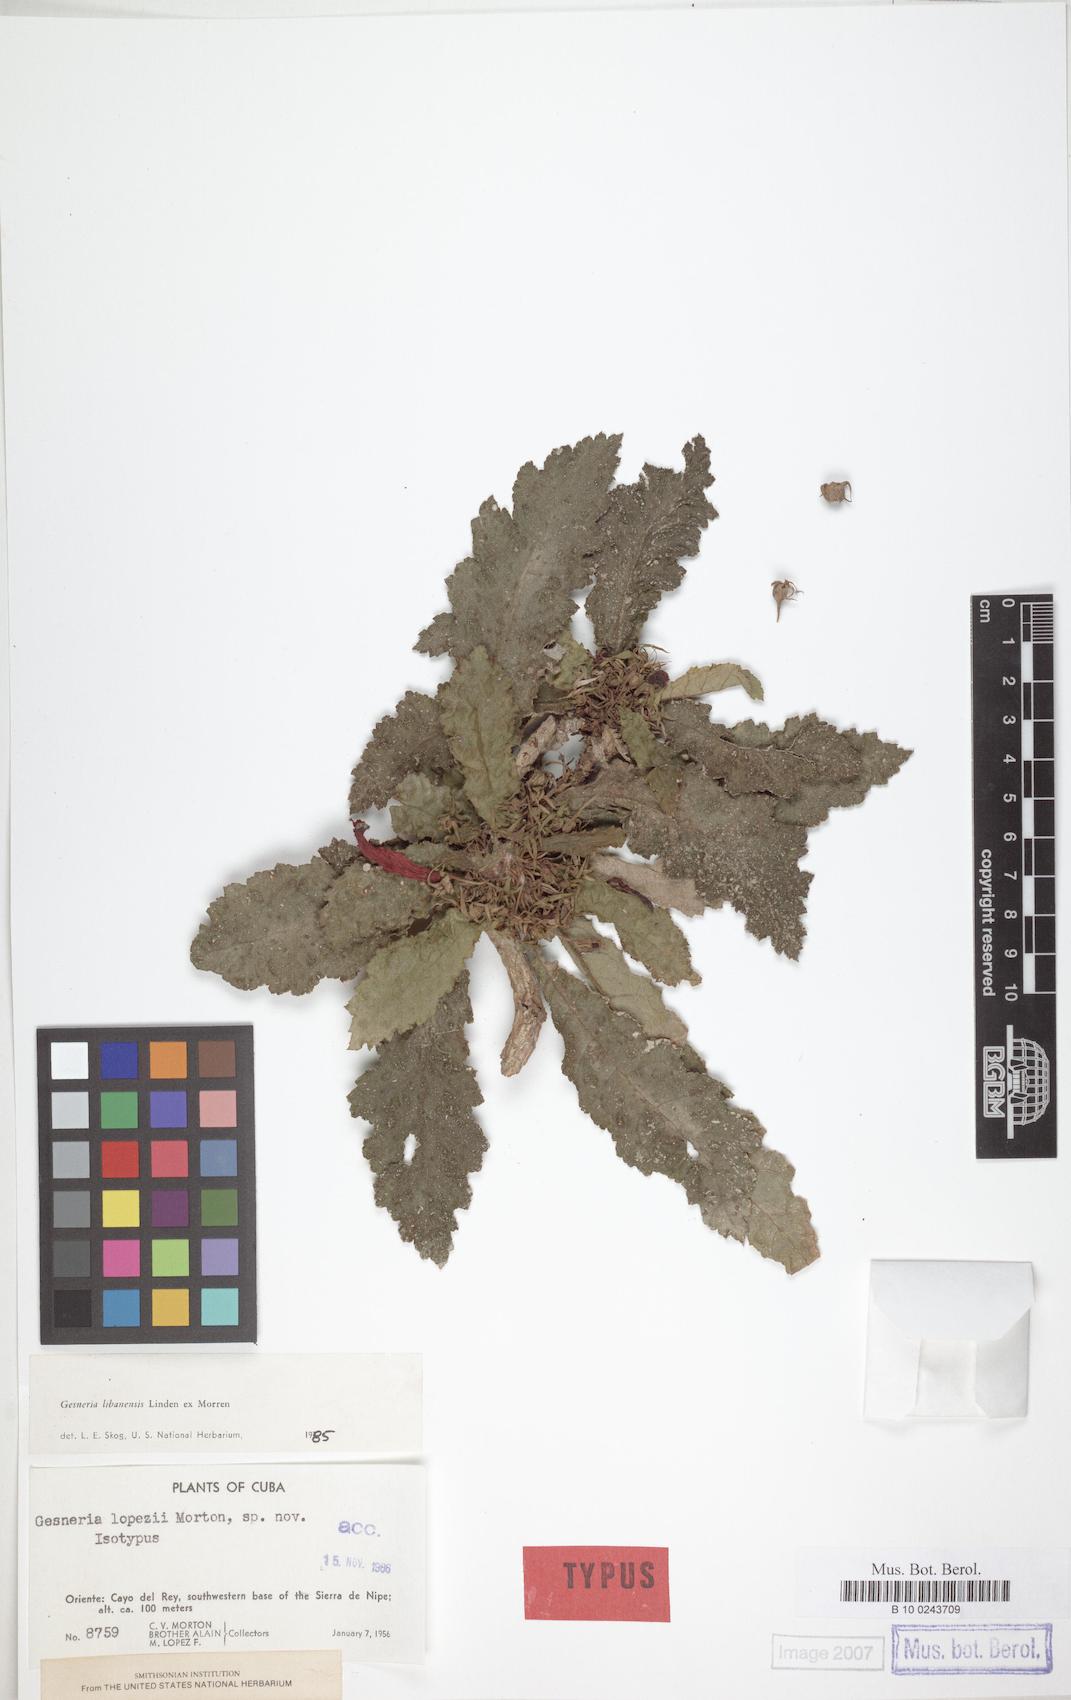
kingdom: Plantae
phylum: Tracheophyta
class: Magnoliopsida
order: Lamiales
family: Gesneriaceae
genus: Gesneria
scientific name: Gesneria libanensis
